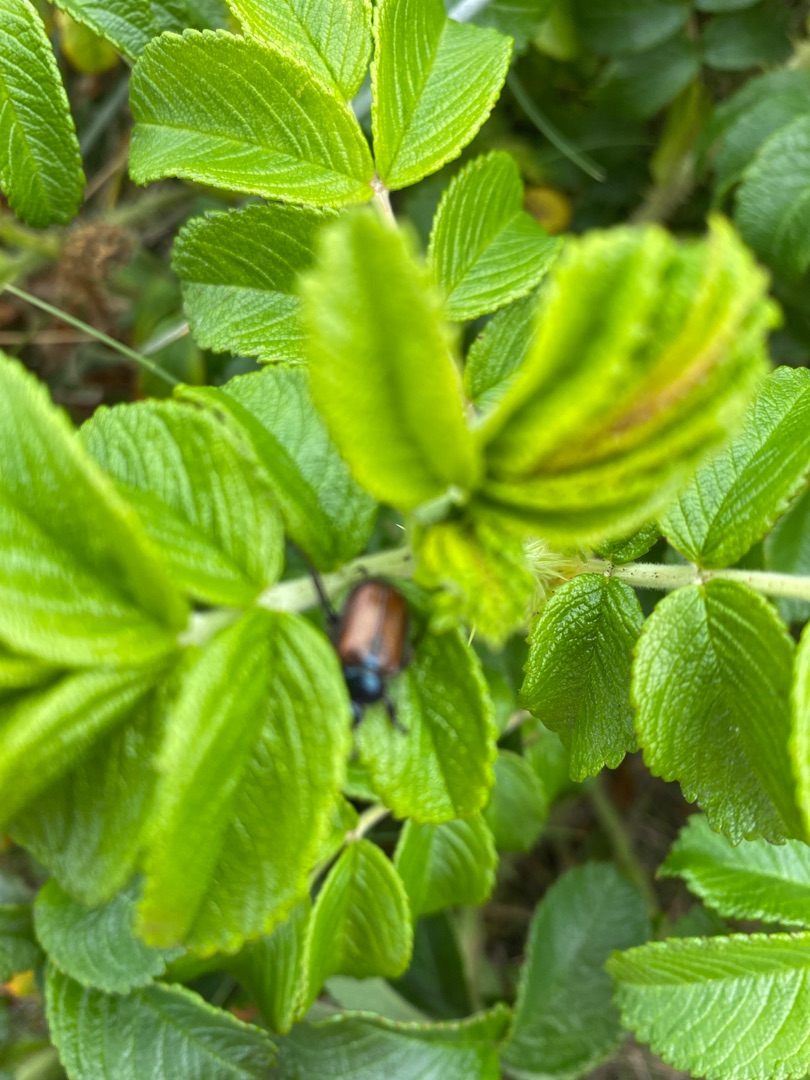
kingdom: Animalia
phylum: Arthropoda
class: Insecta
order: Coleoptera
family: Scarabaeidae
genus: Phyllopertha
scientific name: Phyllopertha horticola
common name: Gåsebille
